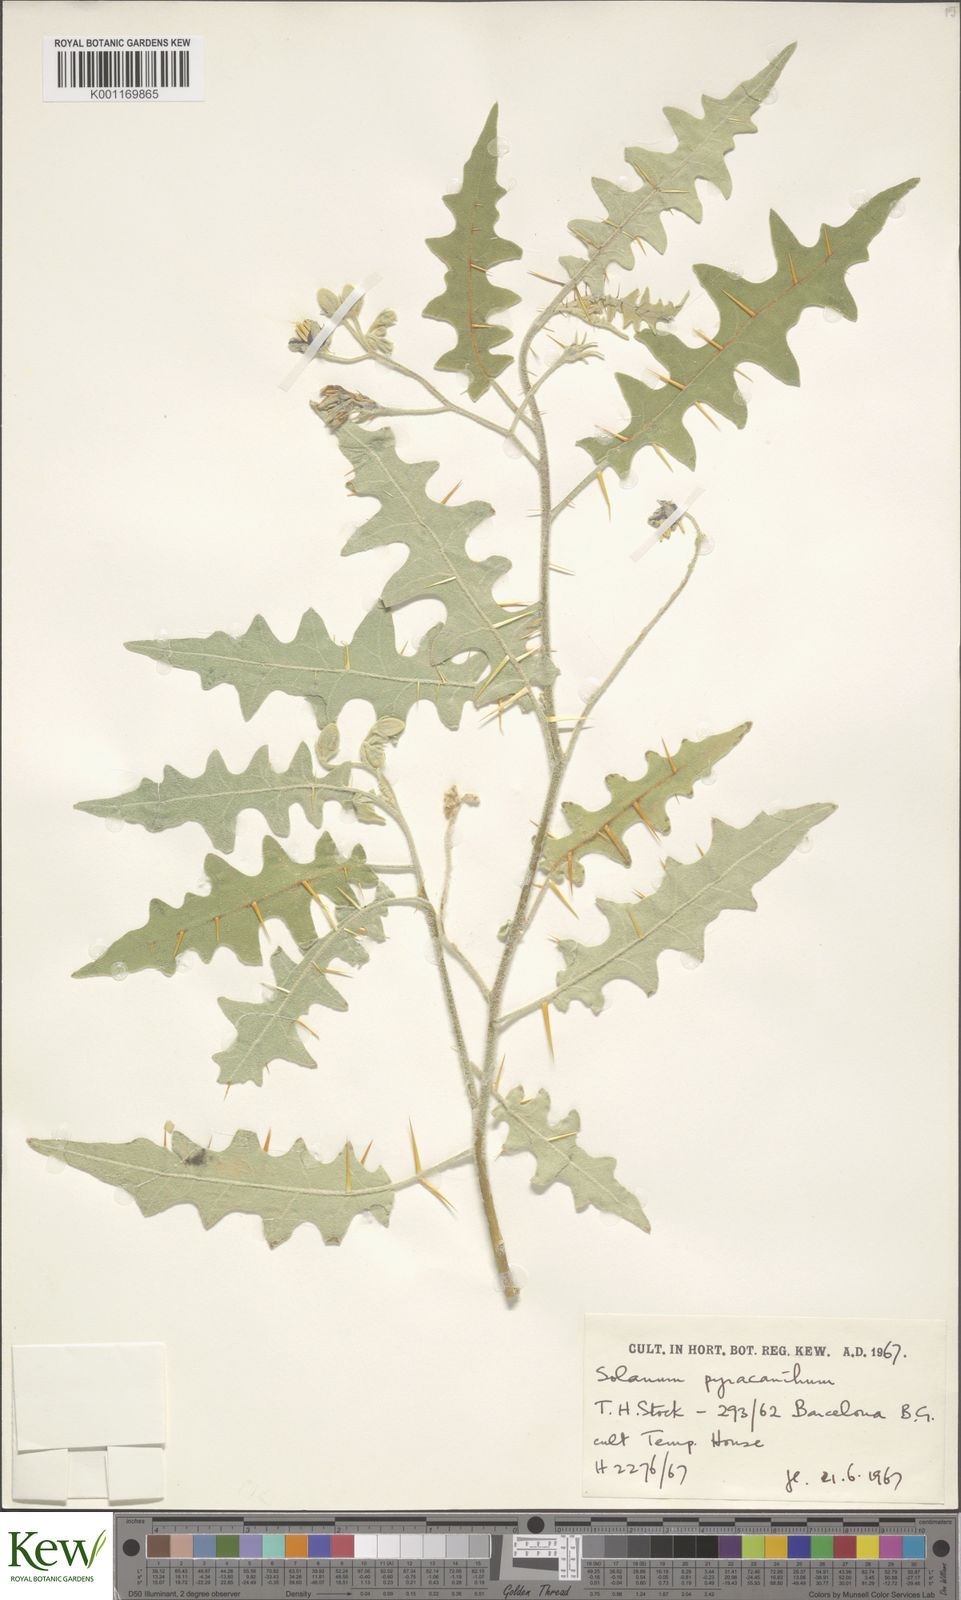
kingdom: Plantae
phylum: Tracheophyta
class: Magnoliopsida
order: Solanales
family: Solanaceae
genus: Solanum
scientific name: Solanum pyracanthos
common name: Porcupine-tomato
